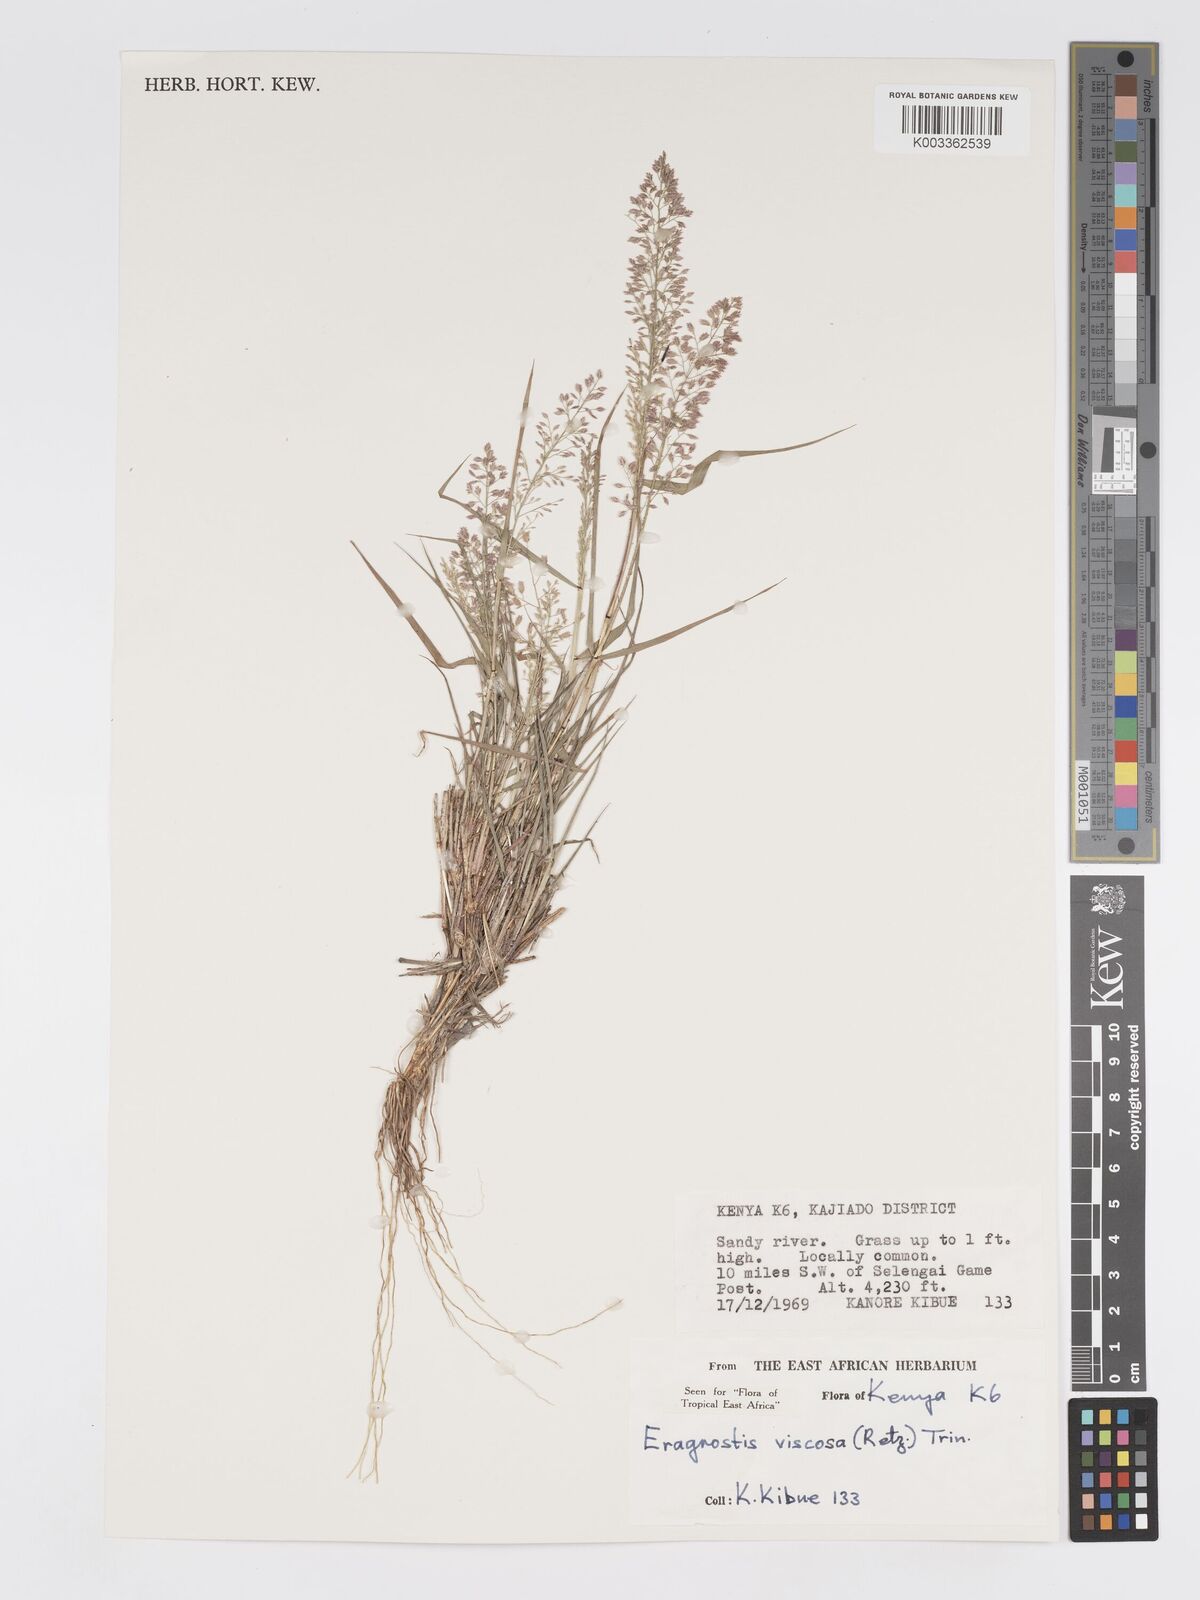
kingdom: Plantae
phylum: Tracheophyta
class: Liliopsida
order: Poales
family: Poaceae
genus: Eragrostis
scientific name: Eragrostis viscosa
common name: Sticky love grass
